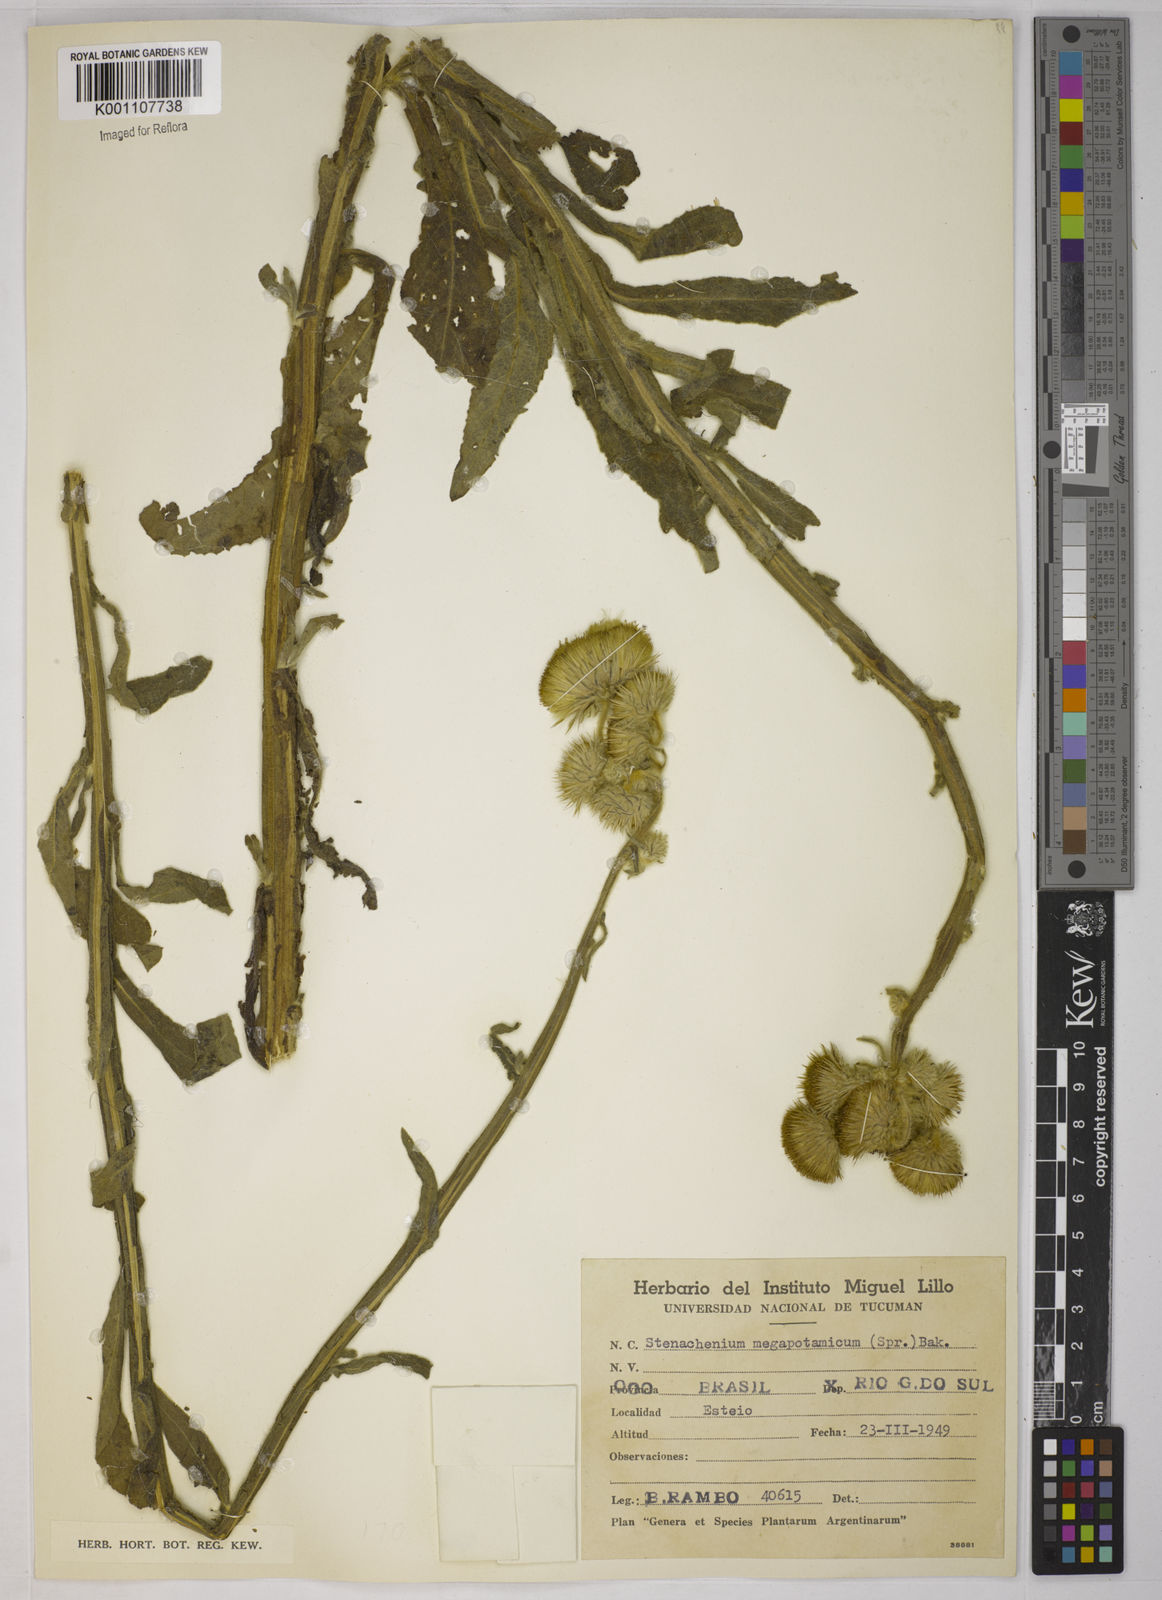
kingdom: Plantae
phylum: Tracheophyta
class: Magnoliopsida
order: Asterales
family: Asteraceae
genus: Stenachaenium
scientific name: Stenachaenium megapotamicum
